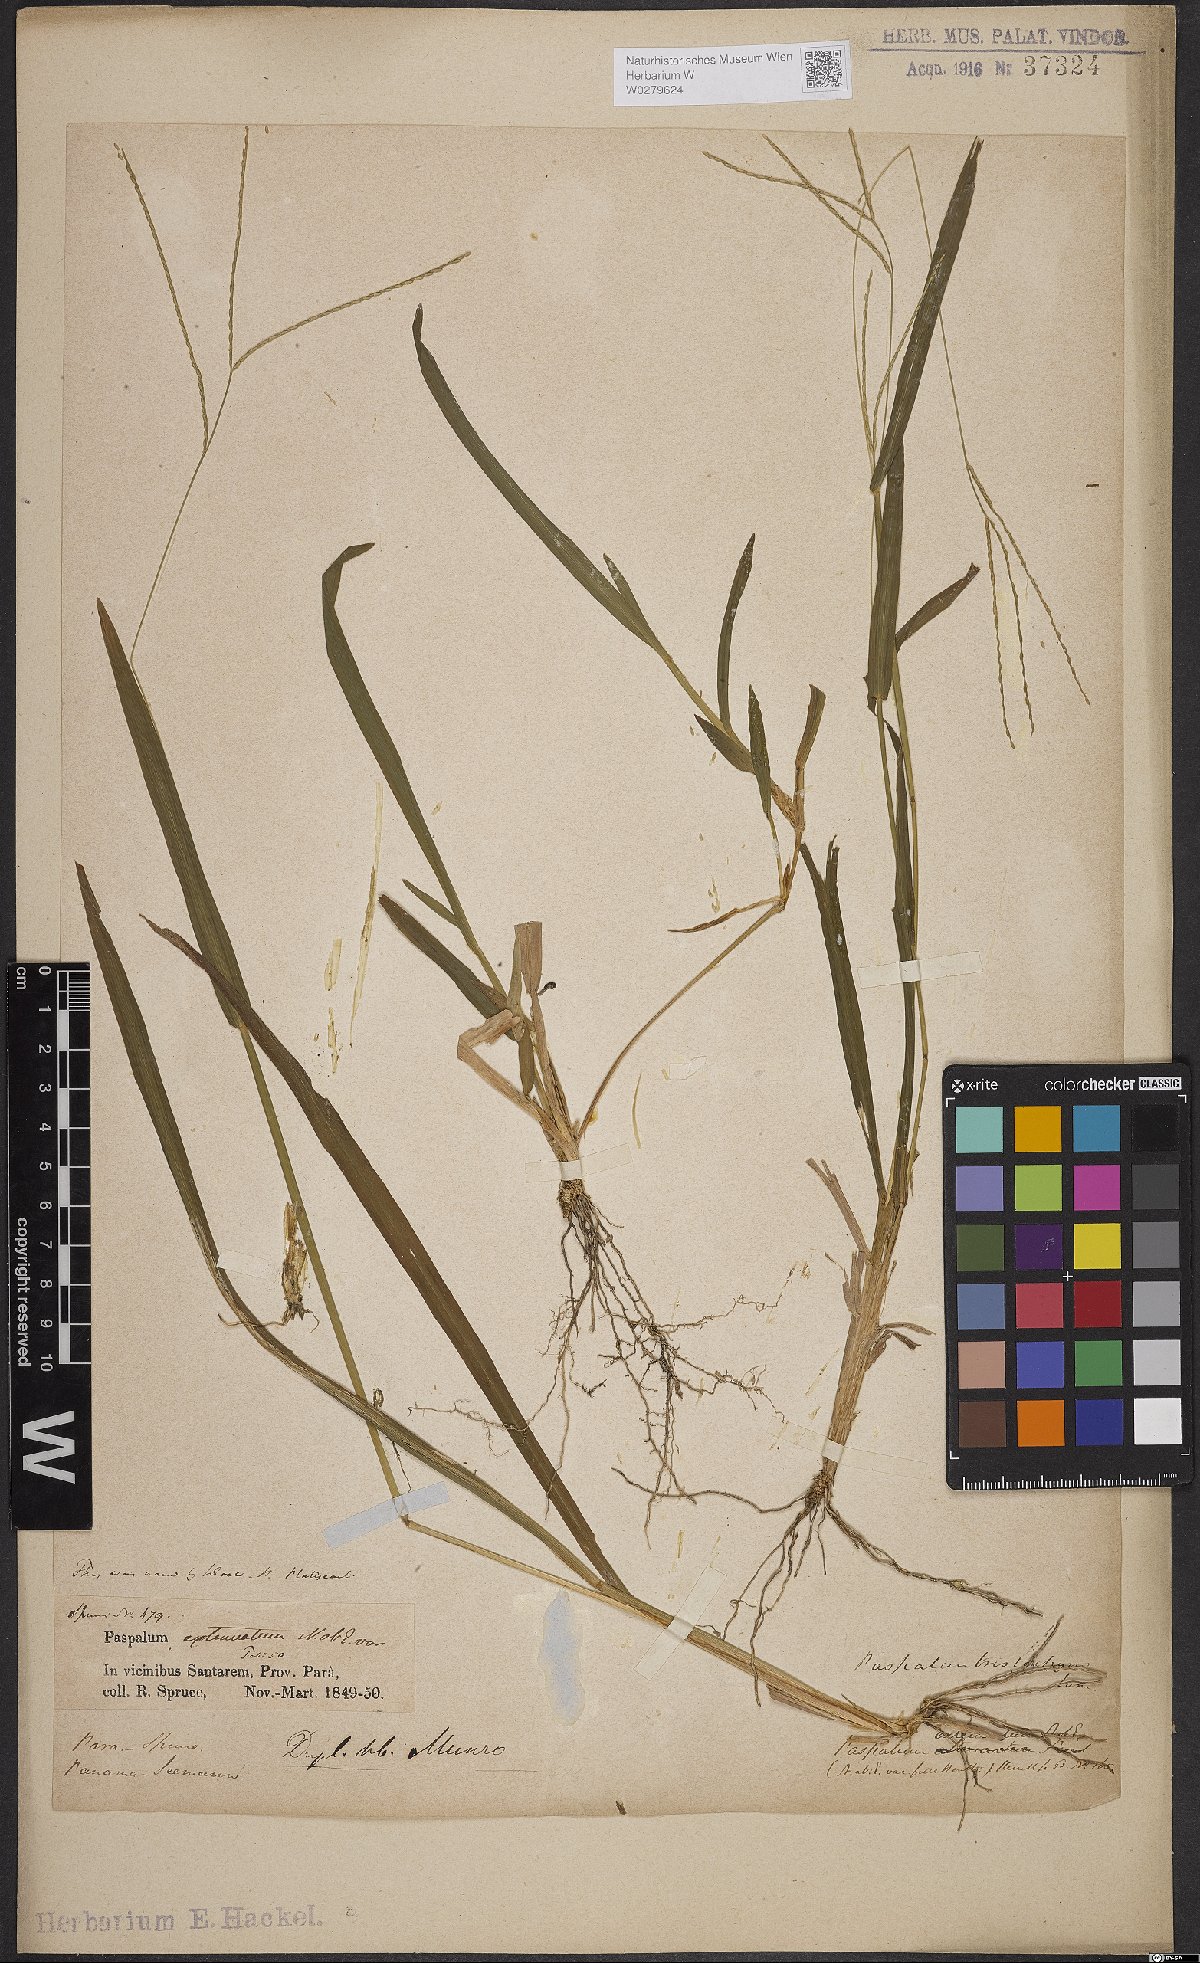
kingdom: Plantae
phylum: Tracheophyta
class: Liliopsida
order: Poales
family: Poaceae
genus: Axonopus
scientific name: Axonopus compressus
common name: American carpet grass
